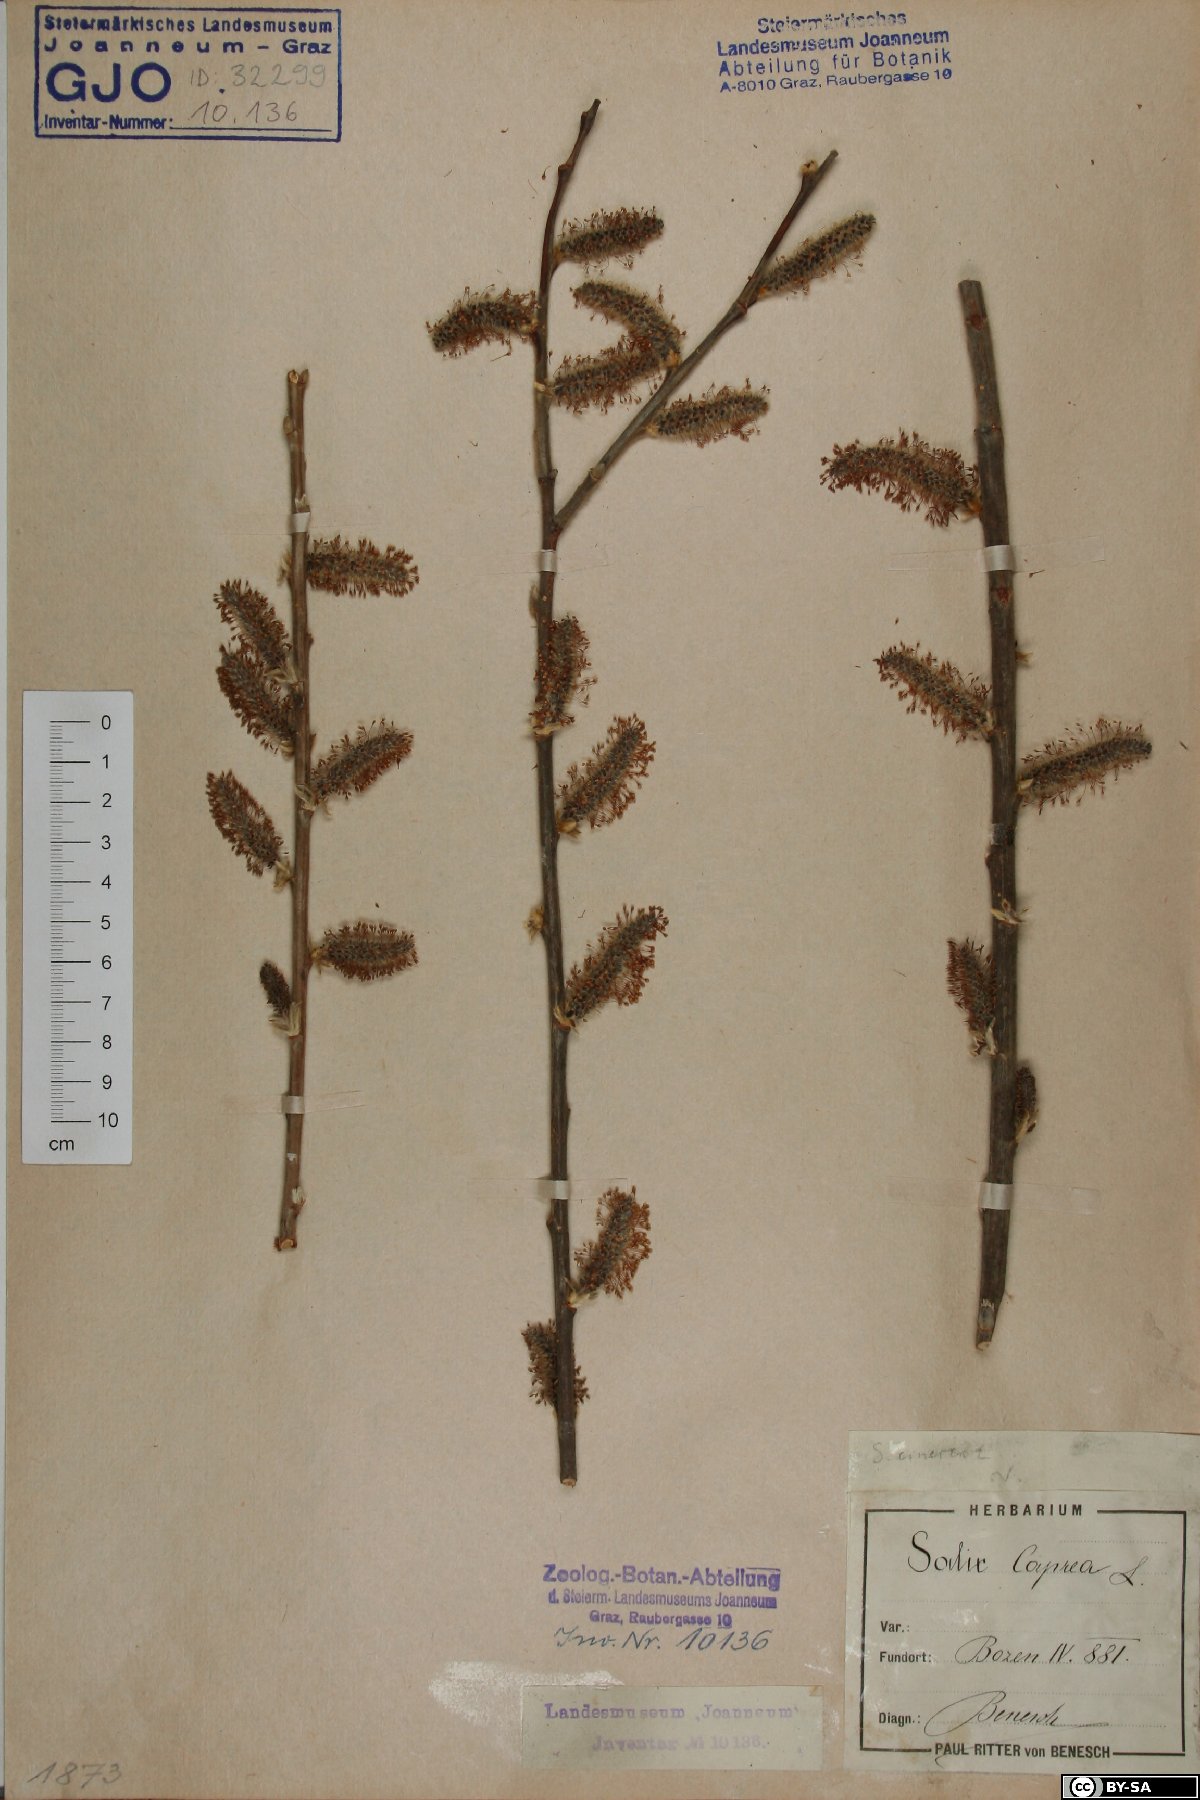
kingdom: Plantae
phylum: Tracheophyta
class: Magnoliopsida
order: Malpighiales
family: Salicaceae
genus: Salix
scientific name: Salix caprea
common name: Goat willow
